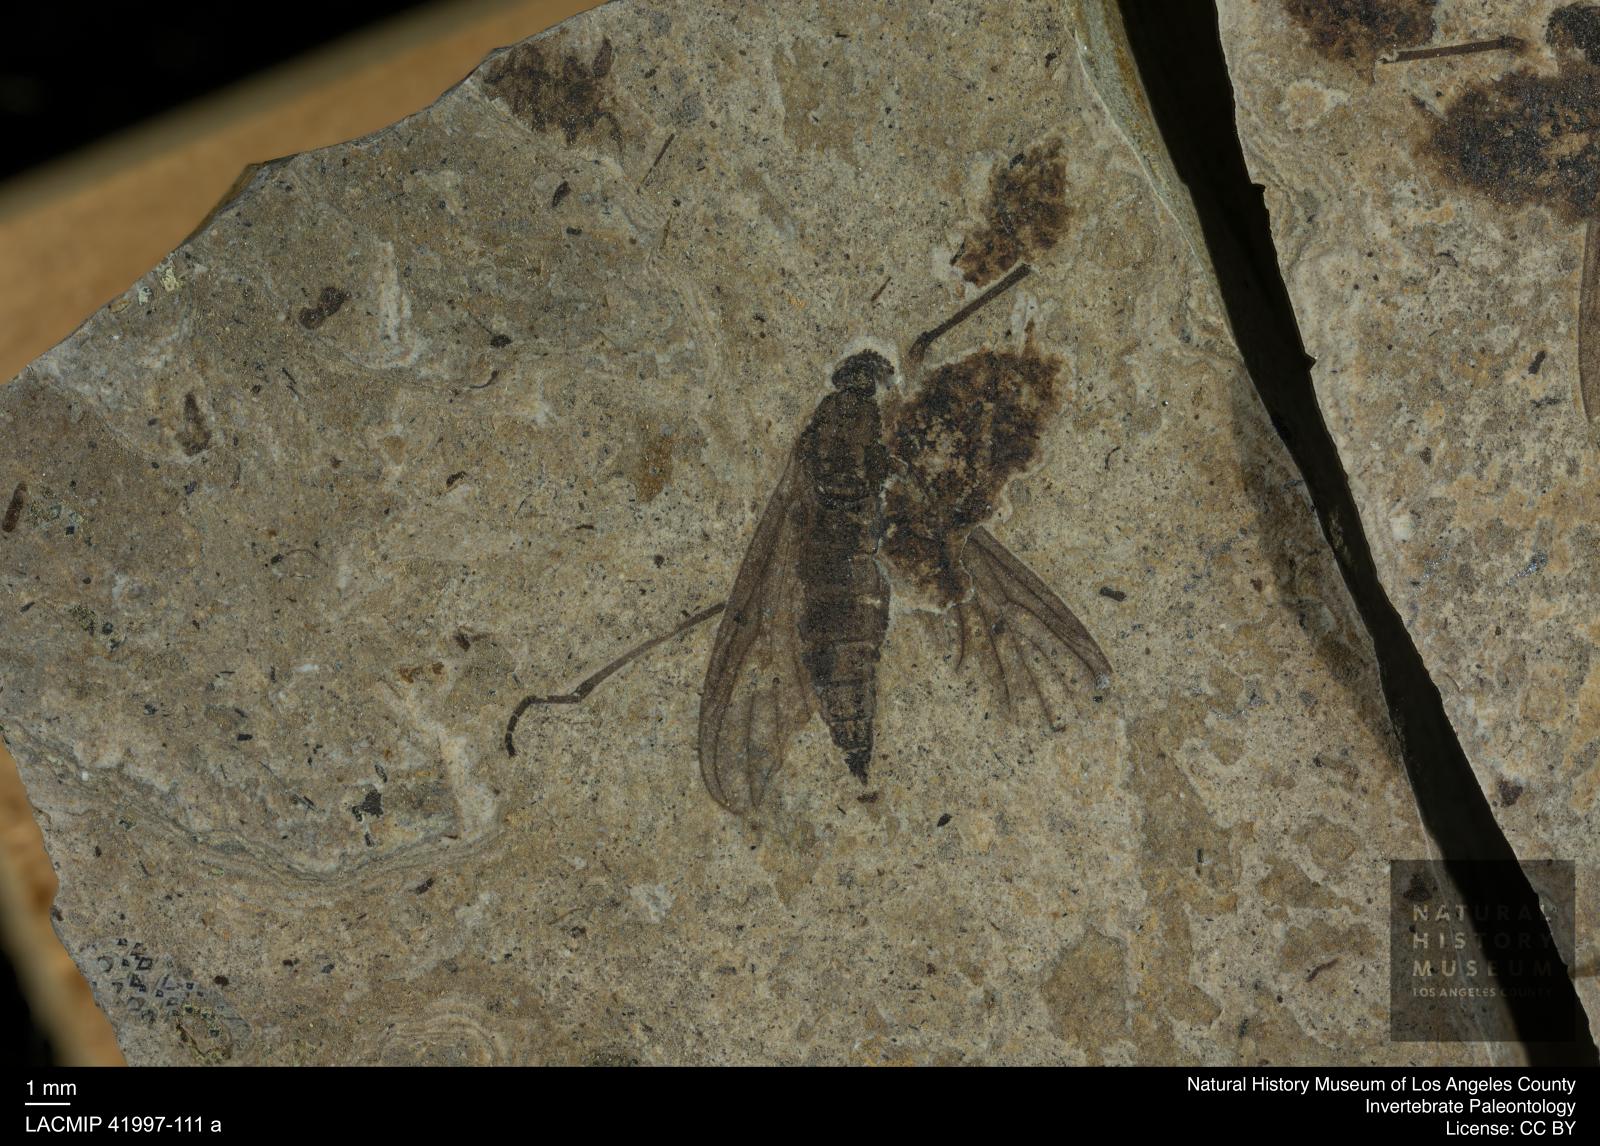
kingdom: Animalia
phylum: Arthropoda
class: Insecta
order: Diptera
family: Bibionidae
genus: Bibio
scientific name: Bibio
